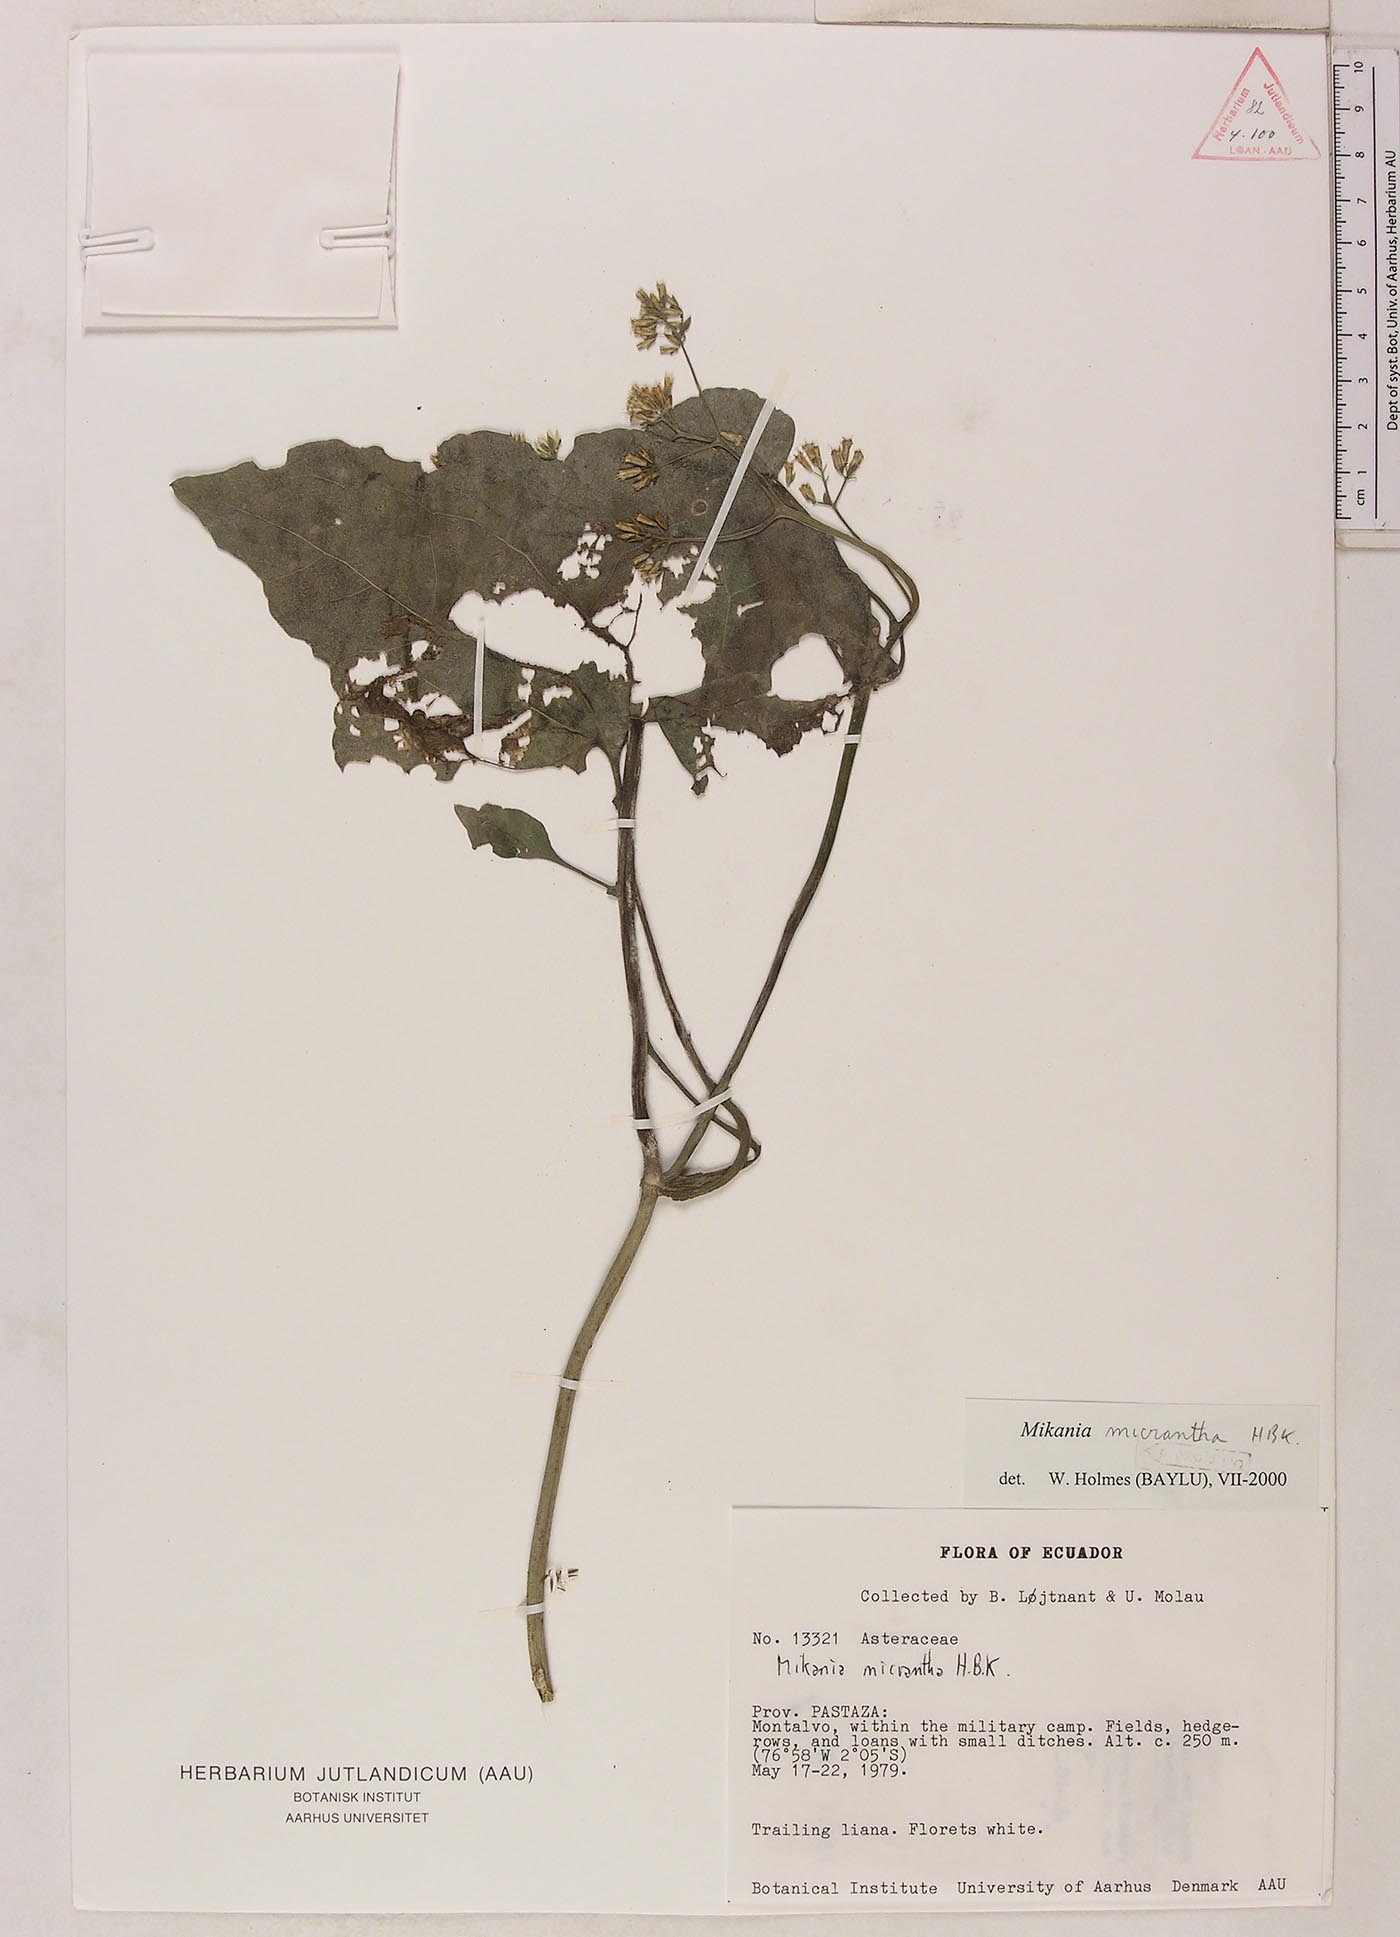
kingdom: Plantae
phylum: Tracheophyta
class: Magnoliopsida
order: Asterales
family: Asteraceae
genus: Mikania
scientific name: Mikania micrantha
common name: Mile-a-minute
